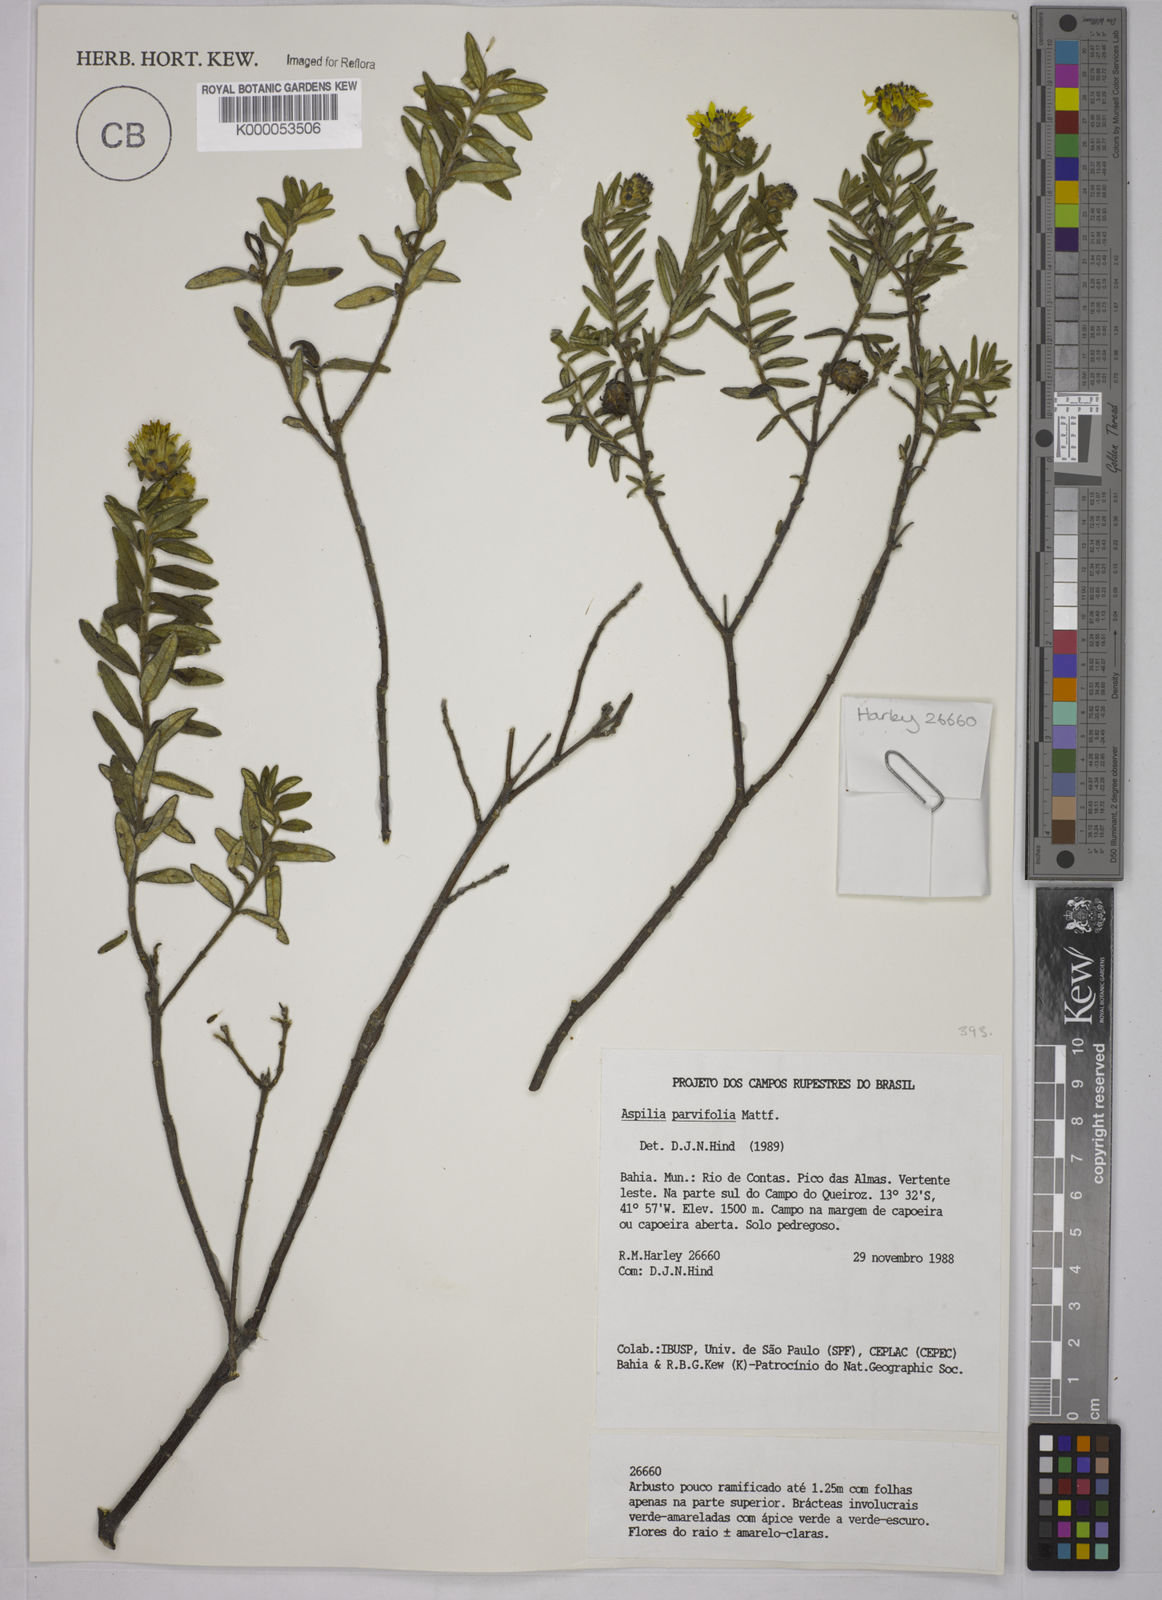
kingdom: Plantae
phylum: Tracheophyta
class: Magnoliopsida
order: Asterales
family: Asteraceae
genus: Aspilia
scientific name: Aspilia foliosa
